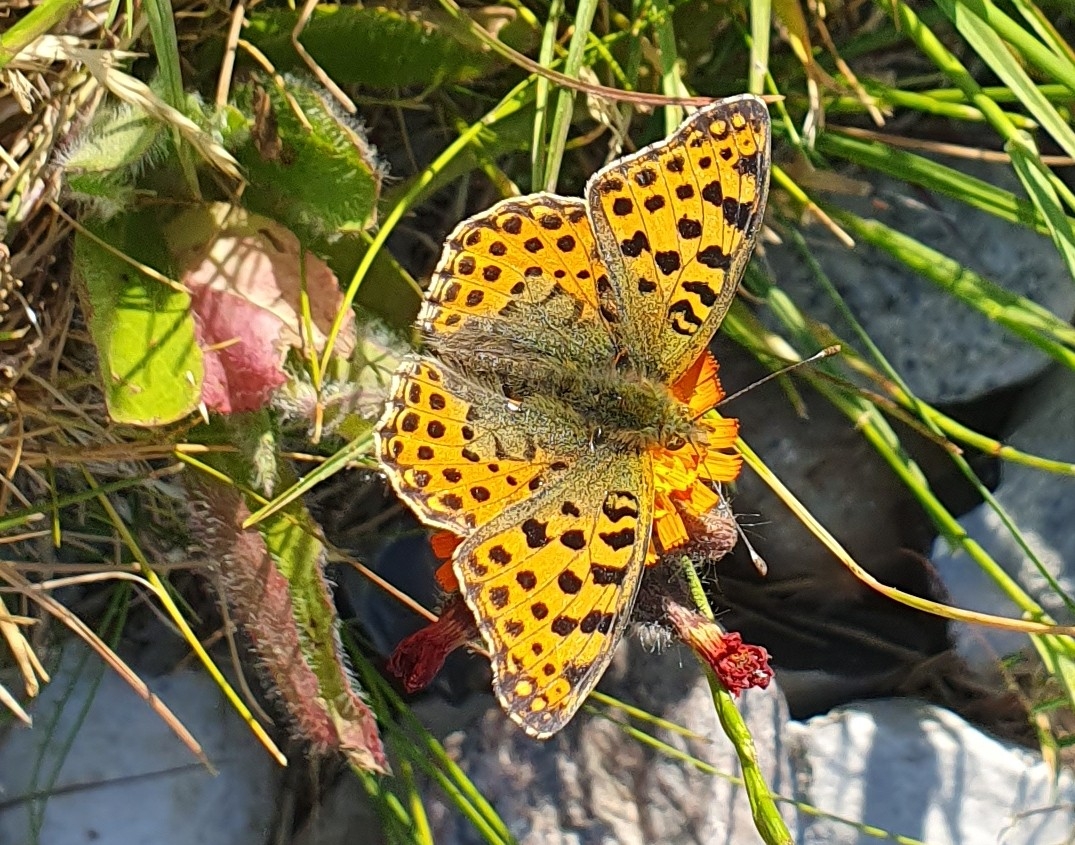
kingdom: Animalia
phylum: Arthropoda
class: Insecta
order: Lepidoptera
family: Nymphalidae
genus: Issoria
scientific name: Issoria lathonia
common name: Storplettet perlemorsommerfugl
